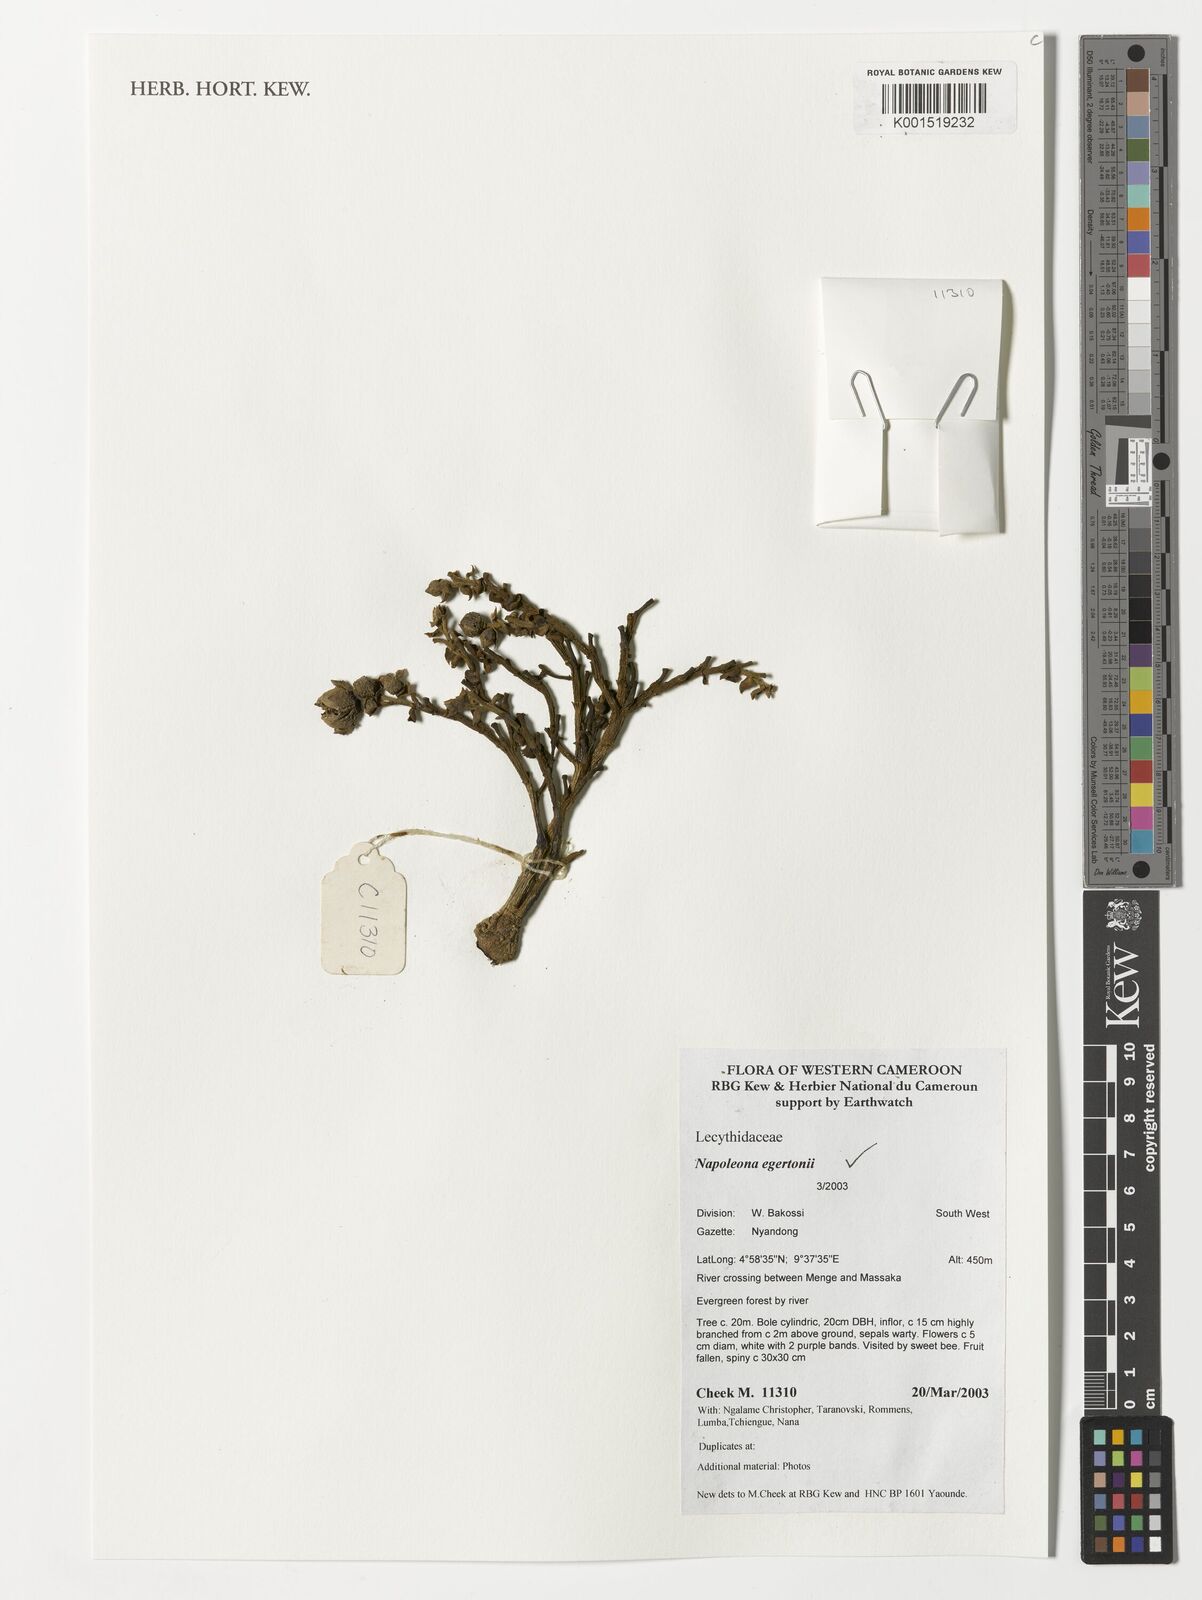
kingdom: Plantae
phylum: Tracheophyta
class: Magnoliopsida
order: Ericales
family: Lecythidaceae
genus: Napoleonaea
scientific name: Napoleonaea egertonii
